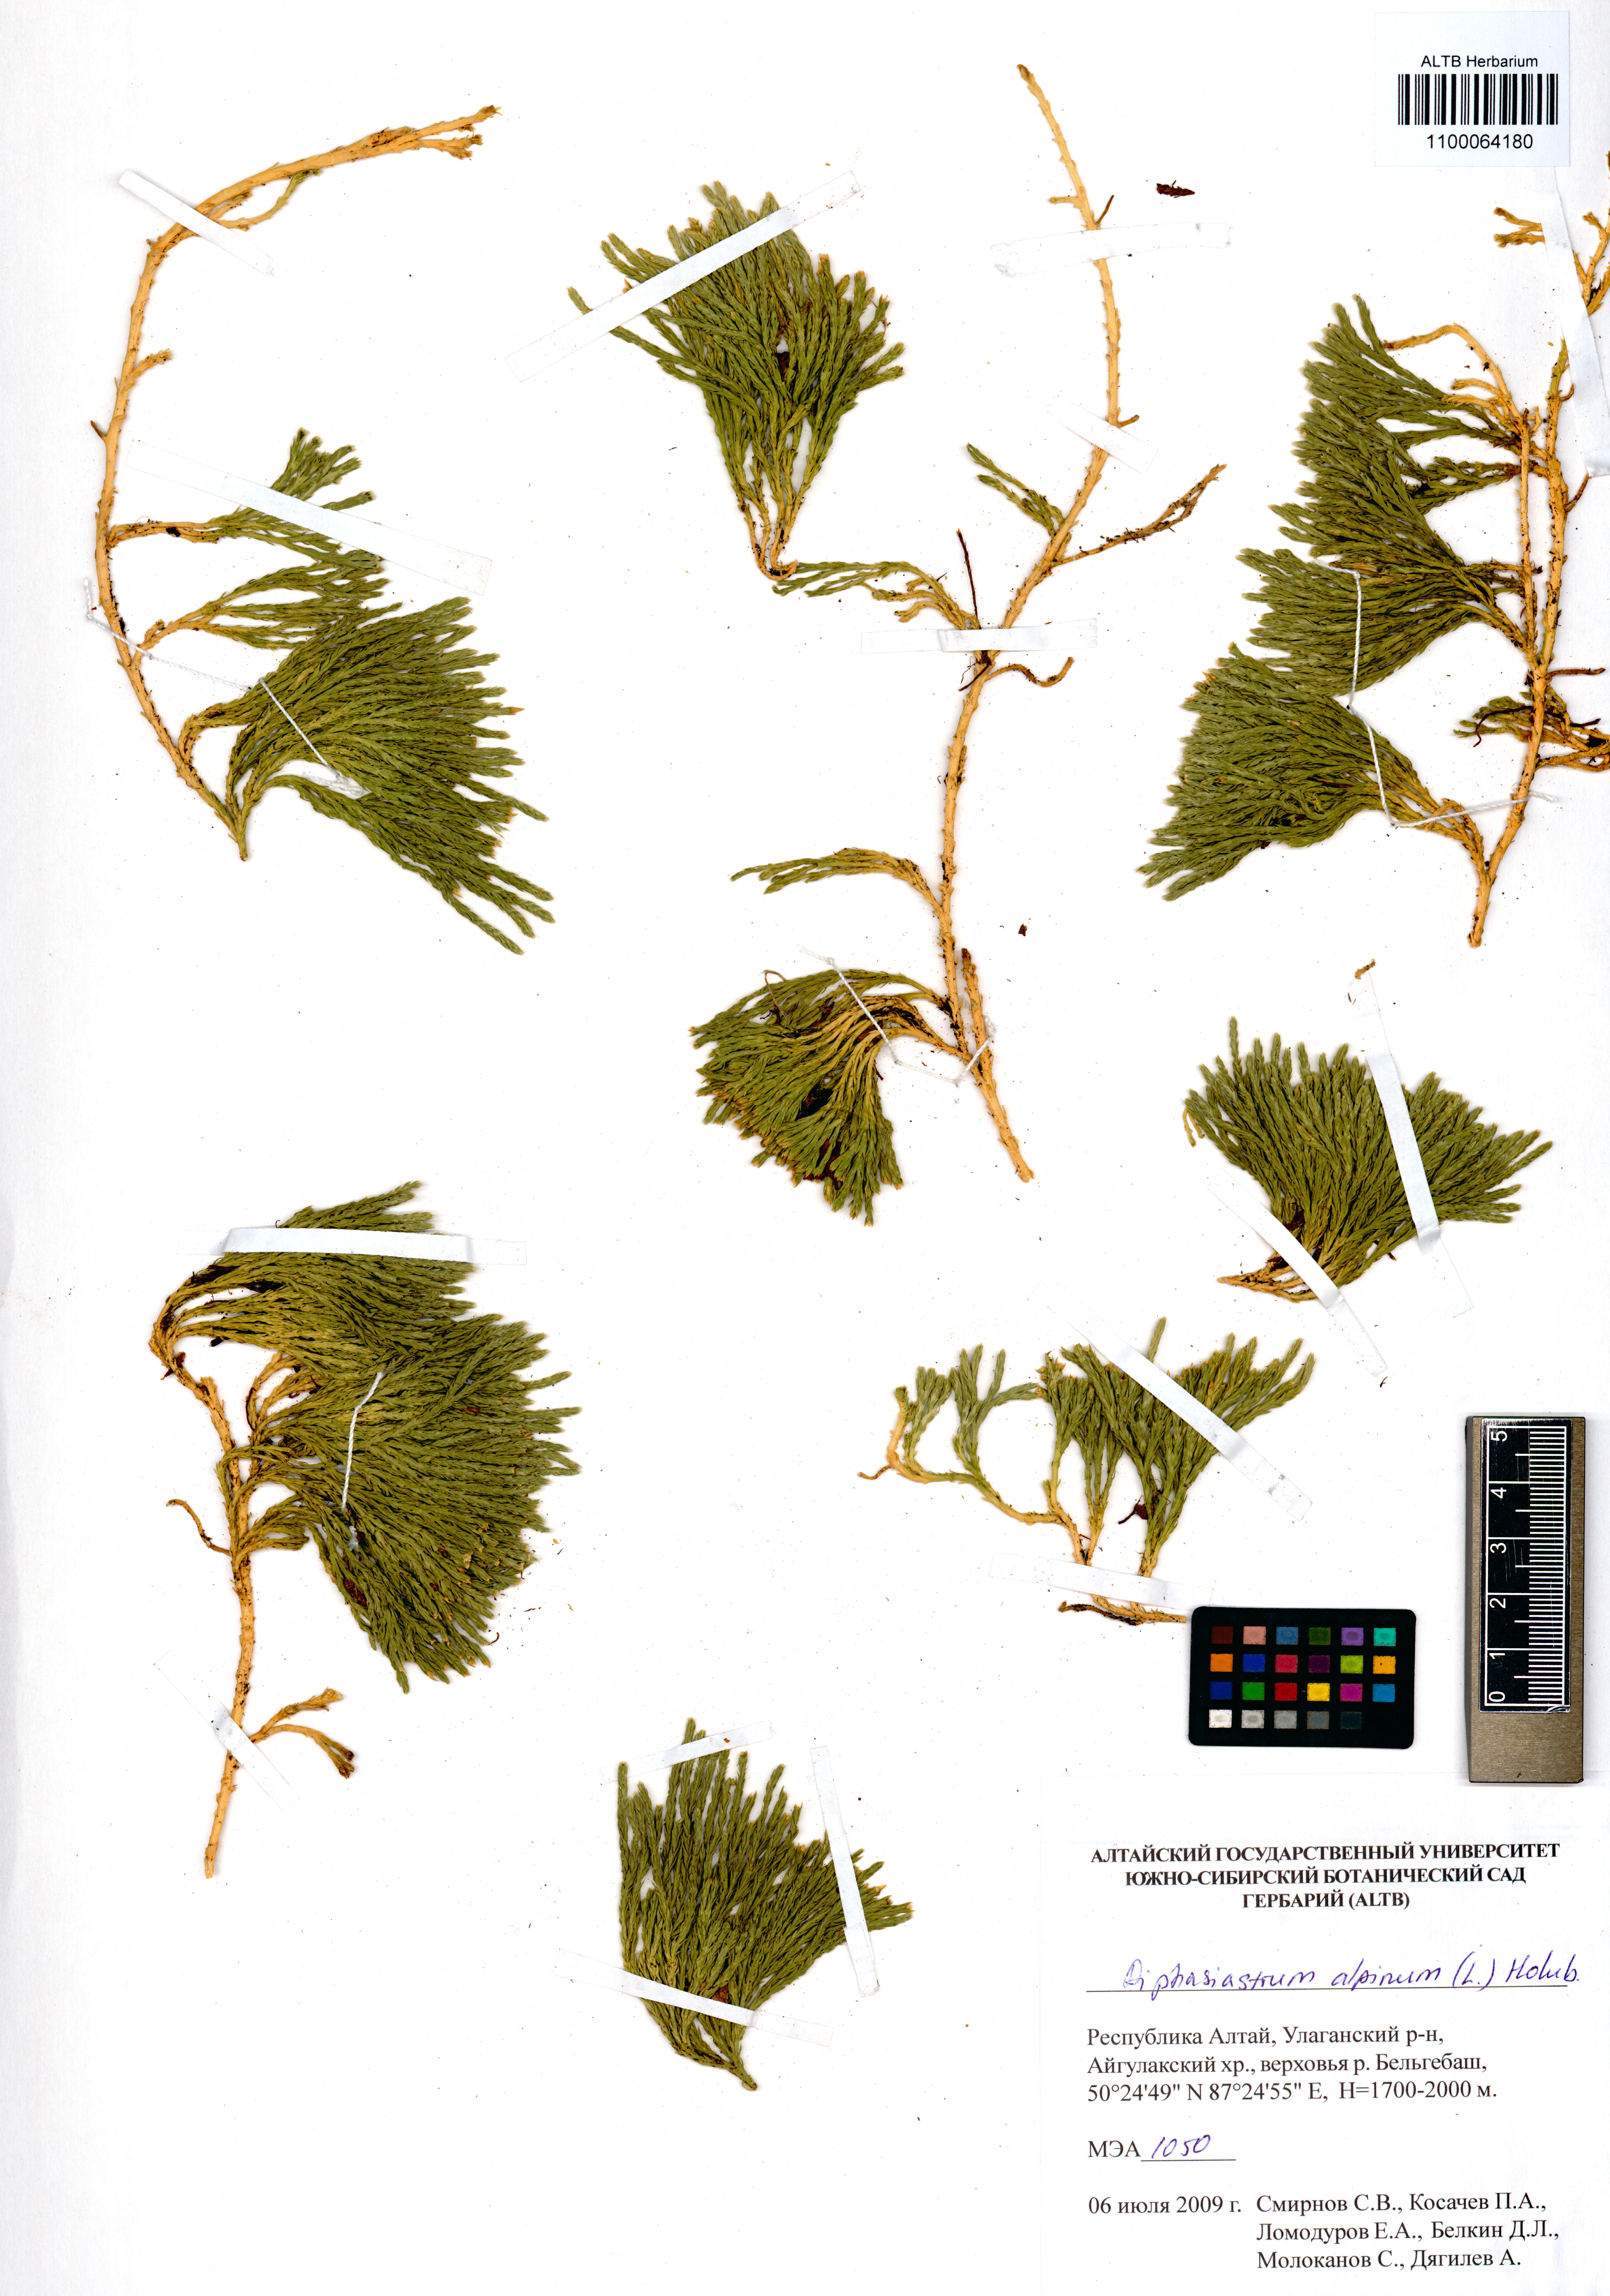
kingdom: Plantae
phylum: Tracheophyta
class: Lycopodiopsida
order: Lycopodiales
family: Lycopodiaceae
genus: Diphasiastrum
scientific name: Diphasiastrum alpinum
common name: Alpine clubmoss
